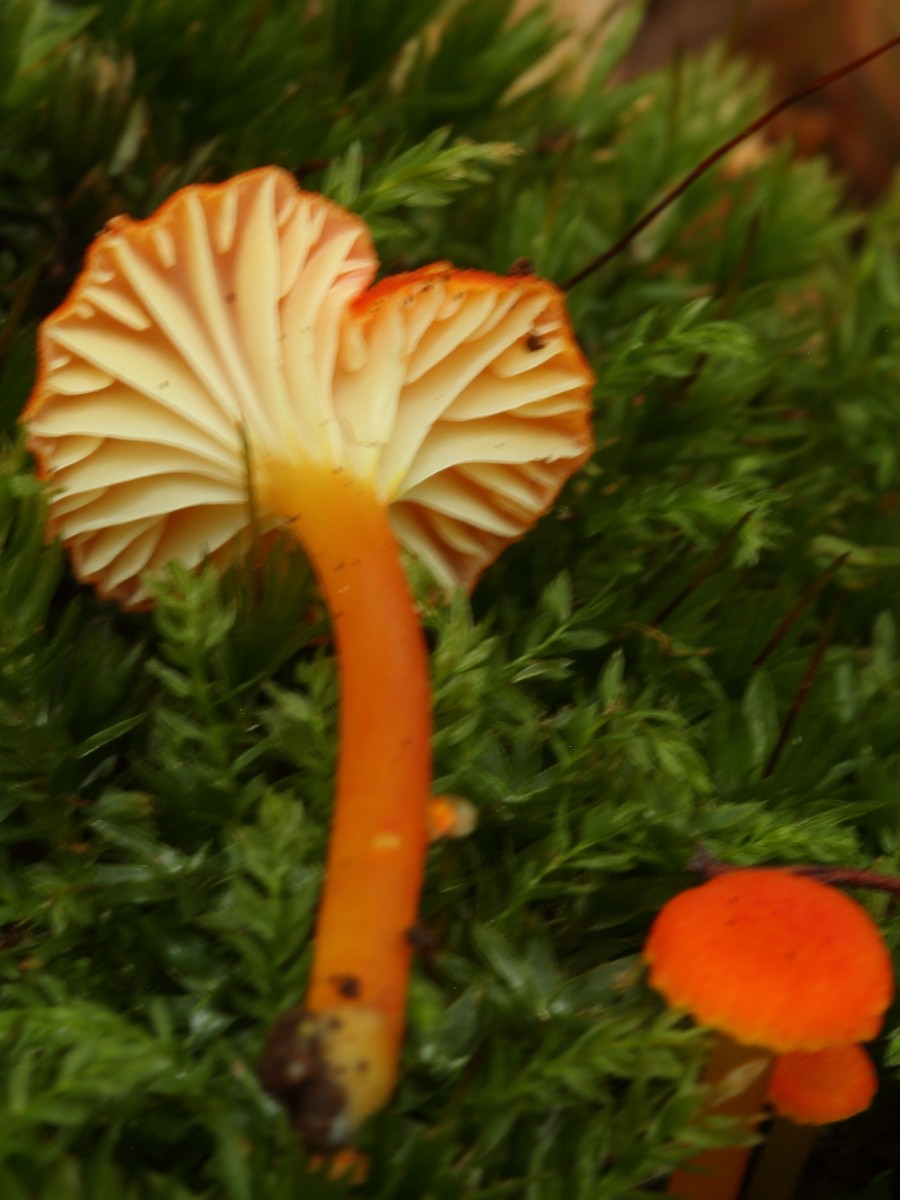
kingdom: Fungi
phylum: Basidiomycota
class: Agaricomycetes
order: Agaricales
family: Hygrophoraceae
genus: Hygrocybe
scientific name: Hygrocybe cantharellus
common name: kantarel-vokshat
